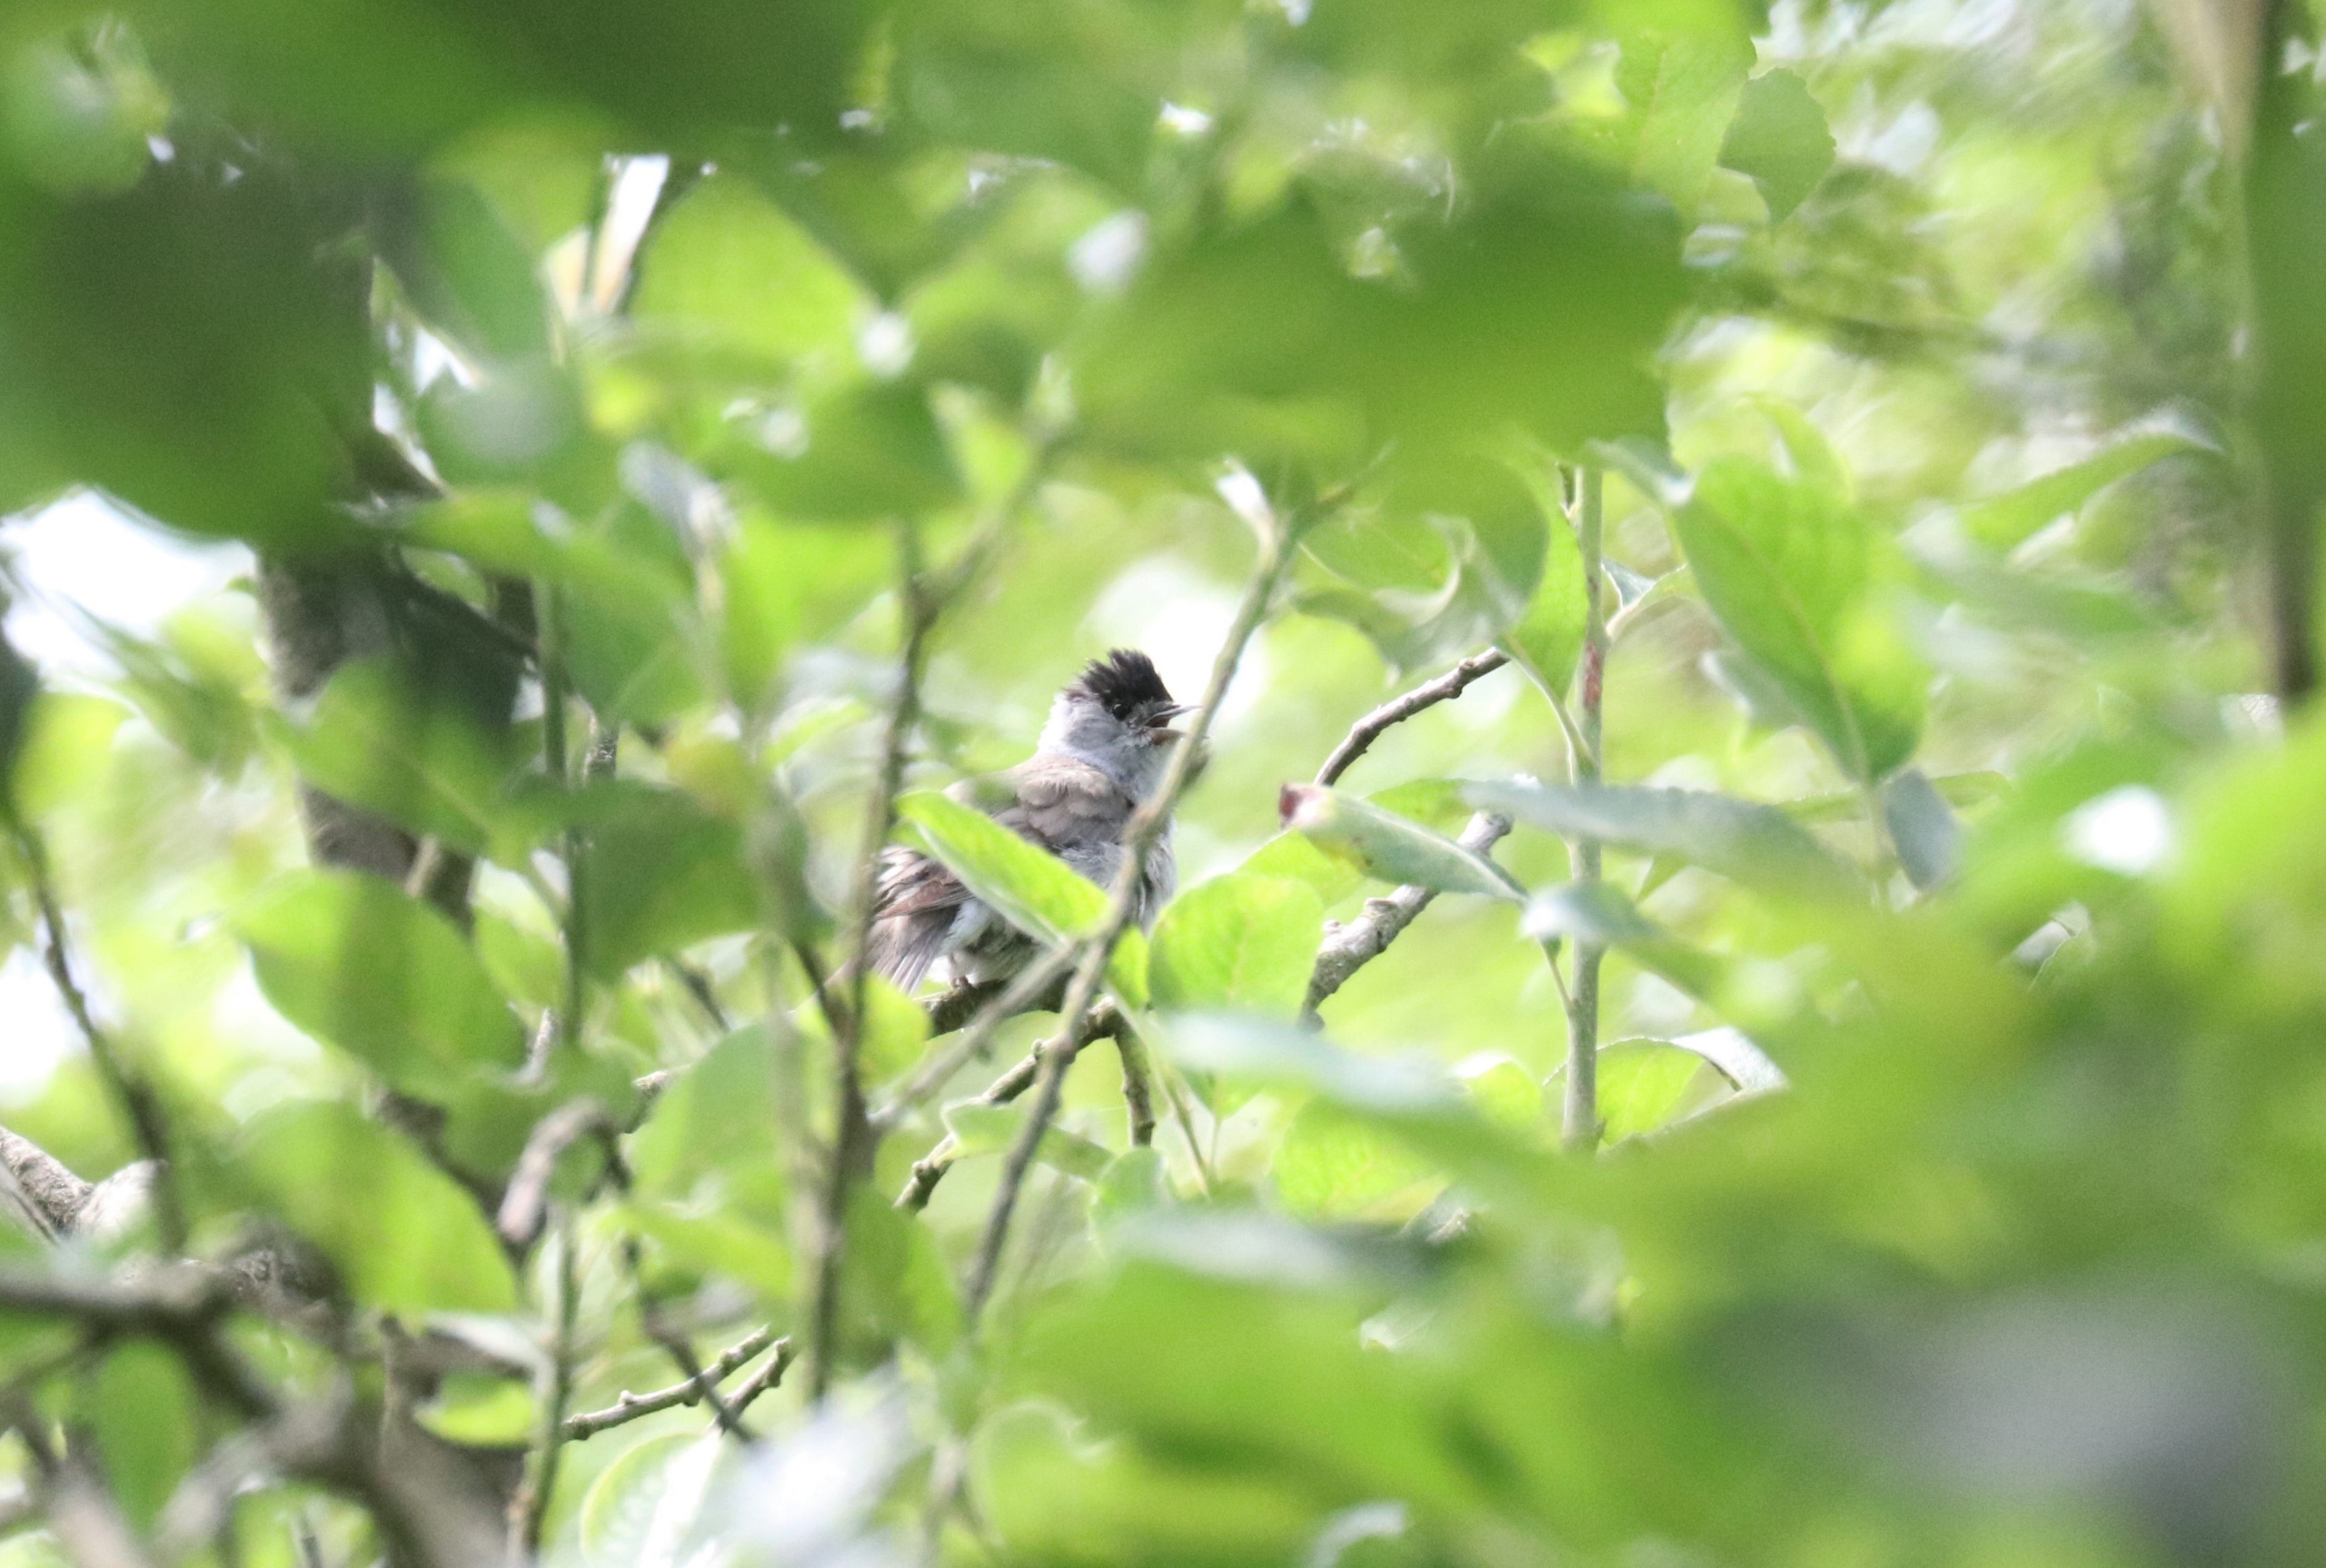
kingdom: Animalia
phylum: Chordata
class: Aves
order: Passeriformes
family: Sylviidae
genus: Sylvia
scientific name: Sylvia atricapilla
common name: Munk
